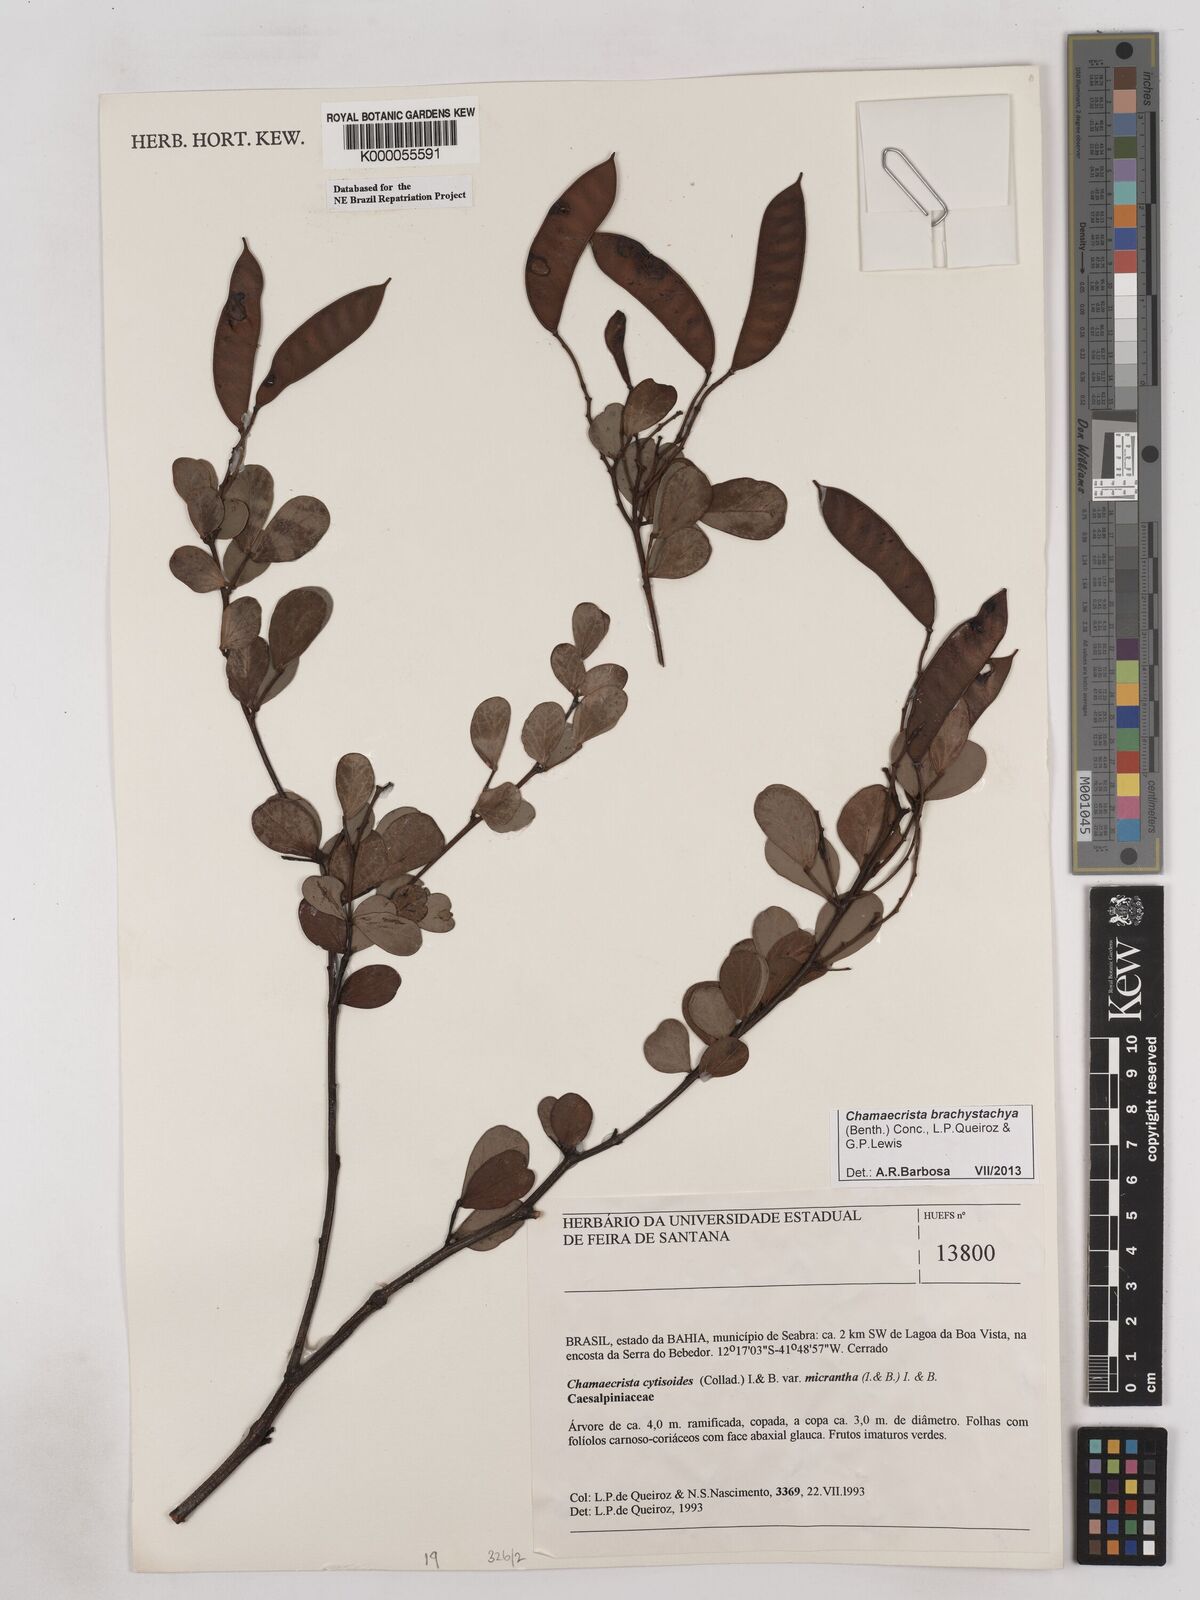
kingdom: Plantae
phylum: Tracheophyta
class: Magnoliopsida
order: Fabales
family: Fabaceae
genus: Chamaecrista
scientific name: Chamaecrista cytisoides
